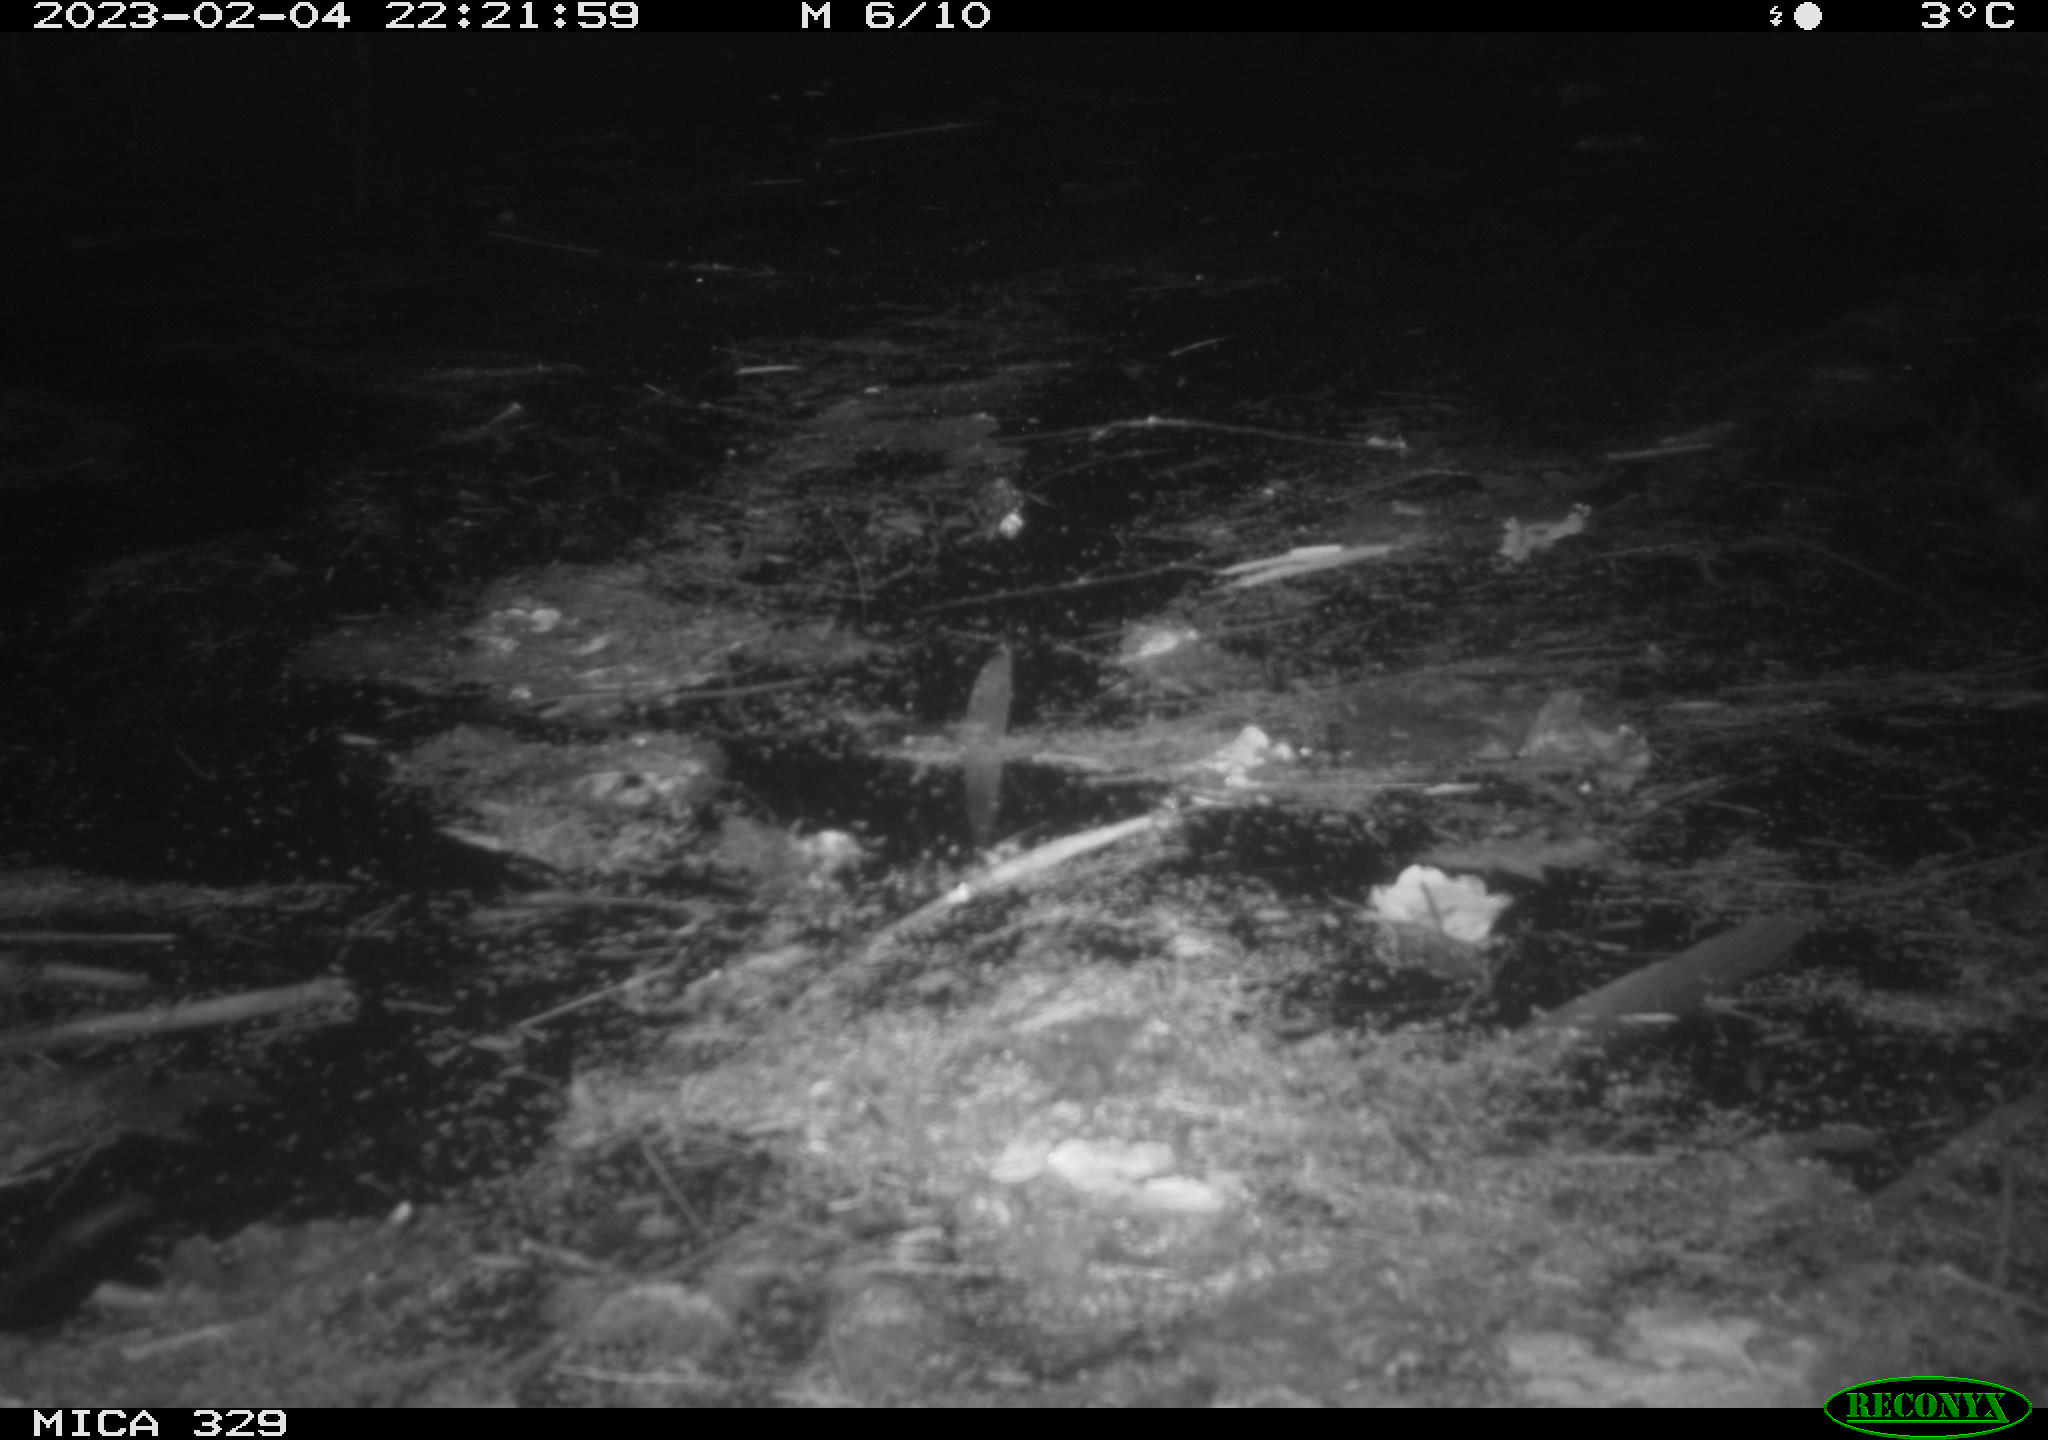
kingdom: Animalia
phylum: Chordata
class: Mammalia
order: Rodentia
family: Cricetidae
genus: Ondatra
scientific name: Ondatra zibethicus
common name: Muskrat
